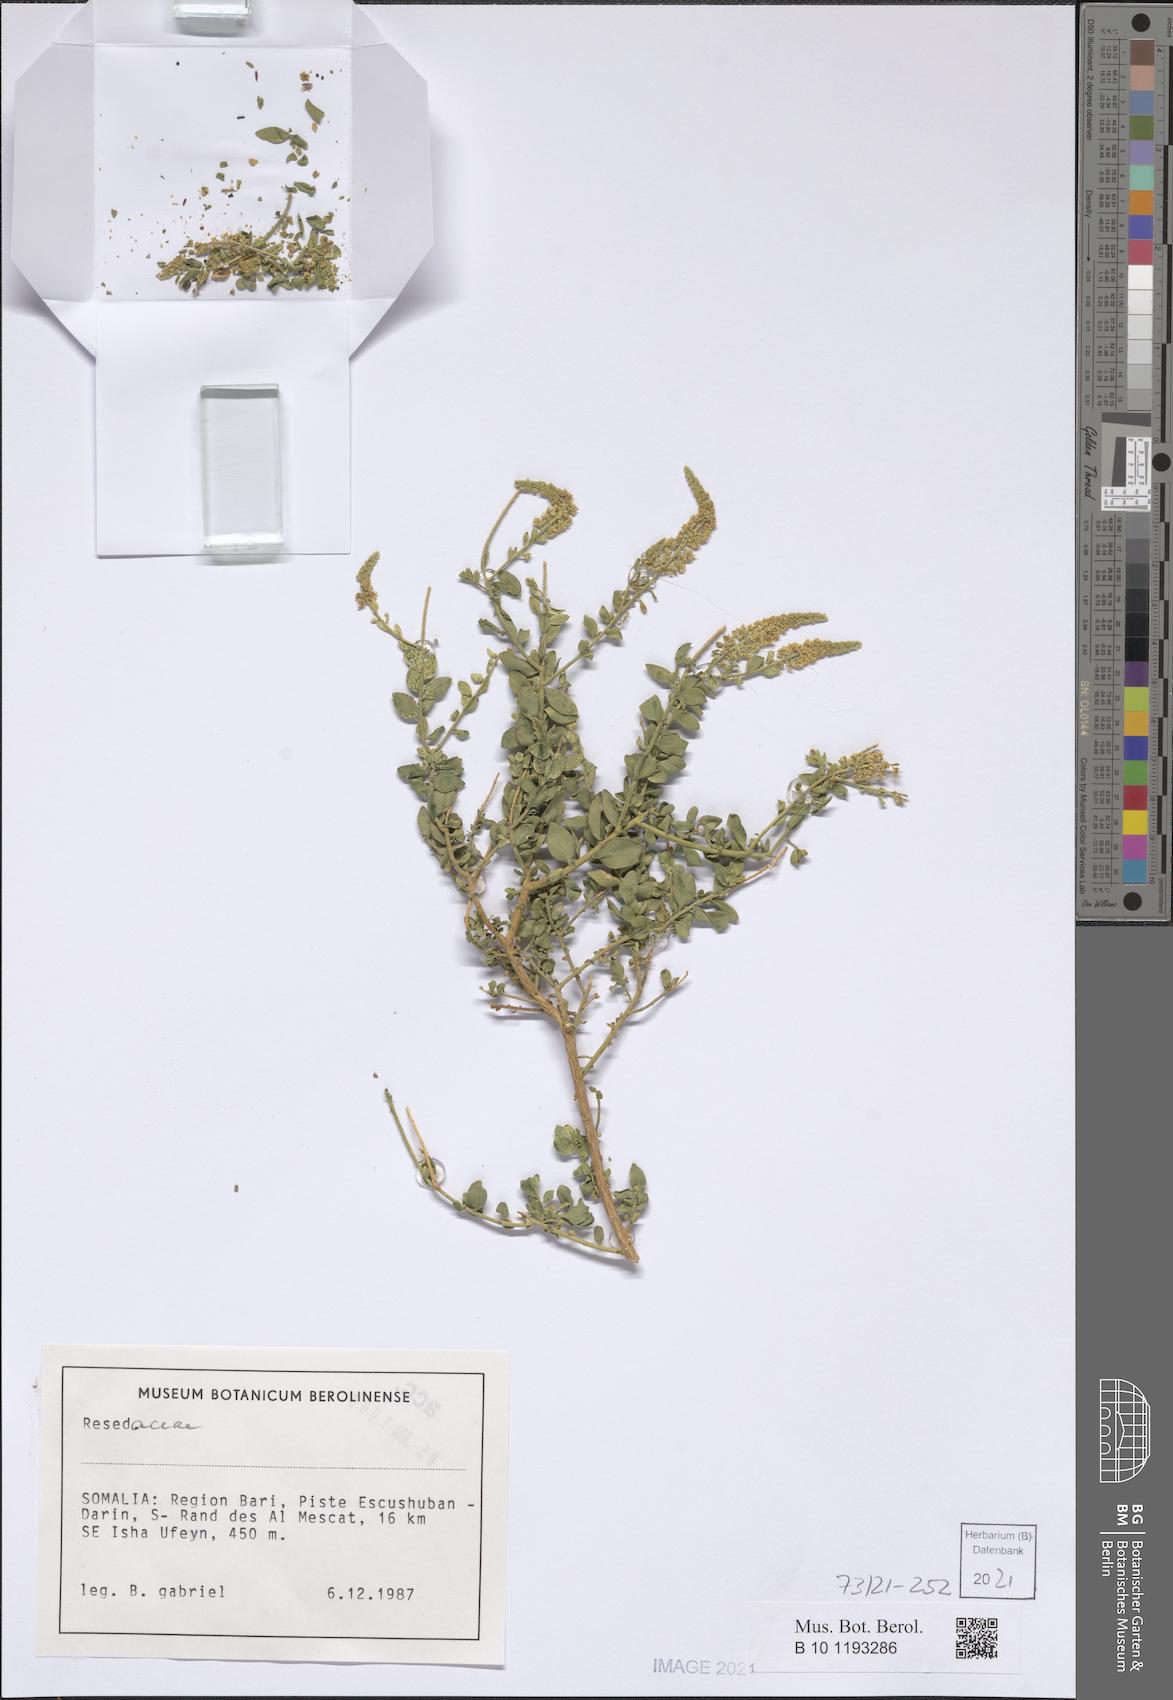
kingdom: Plantae
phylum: Tracheophyta
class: Magnoliopsida
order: Brassicales
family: Resedaceae
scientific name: Resedaceae
